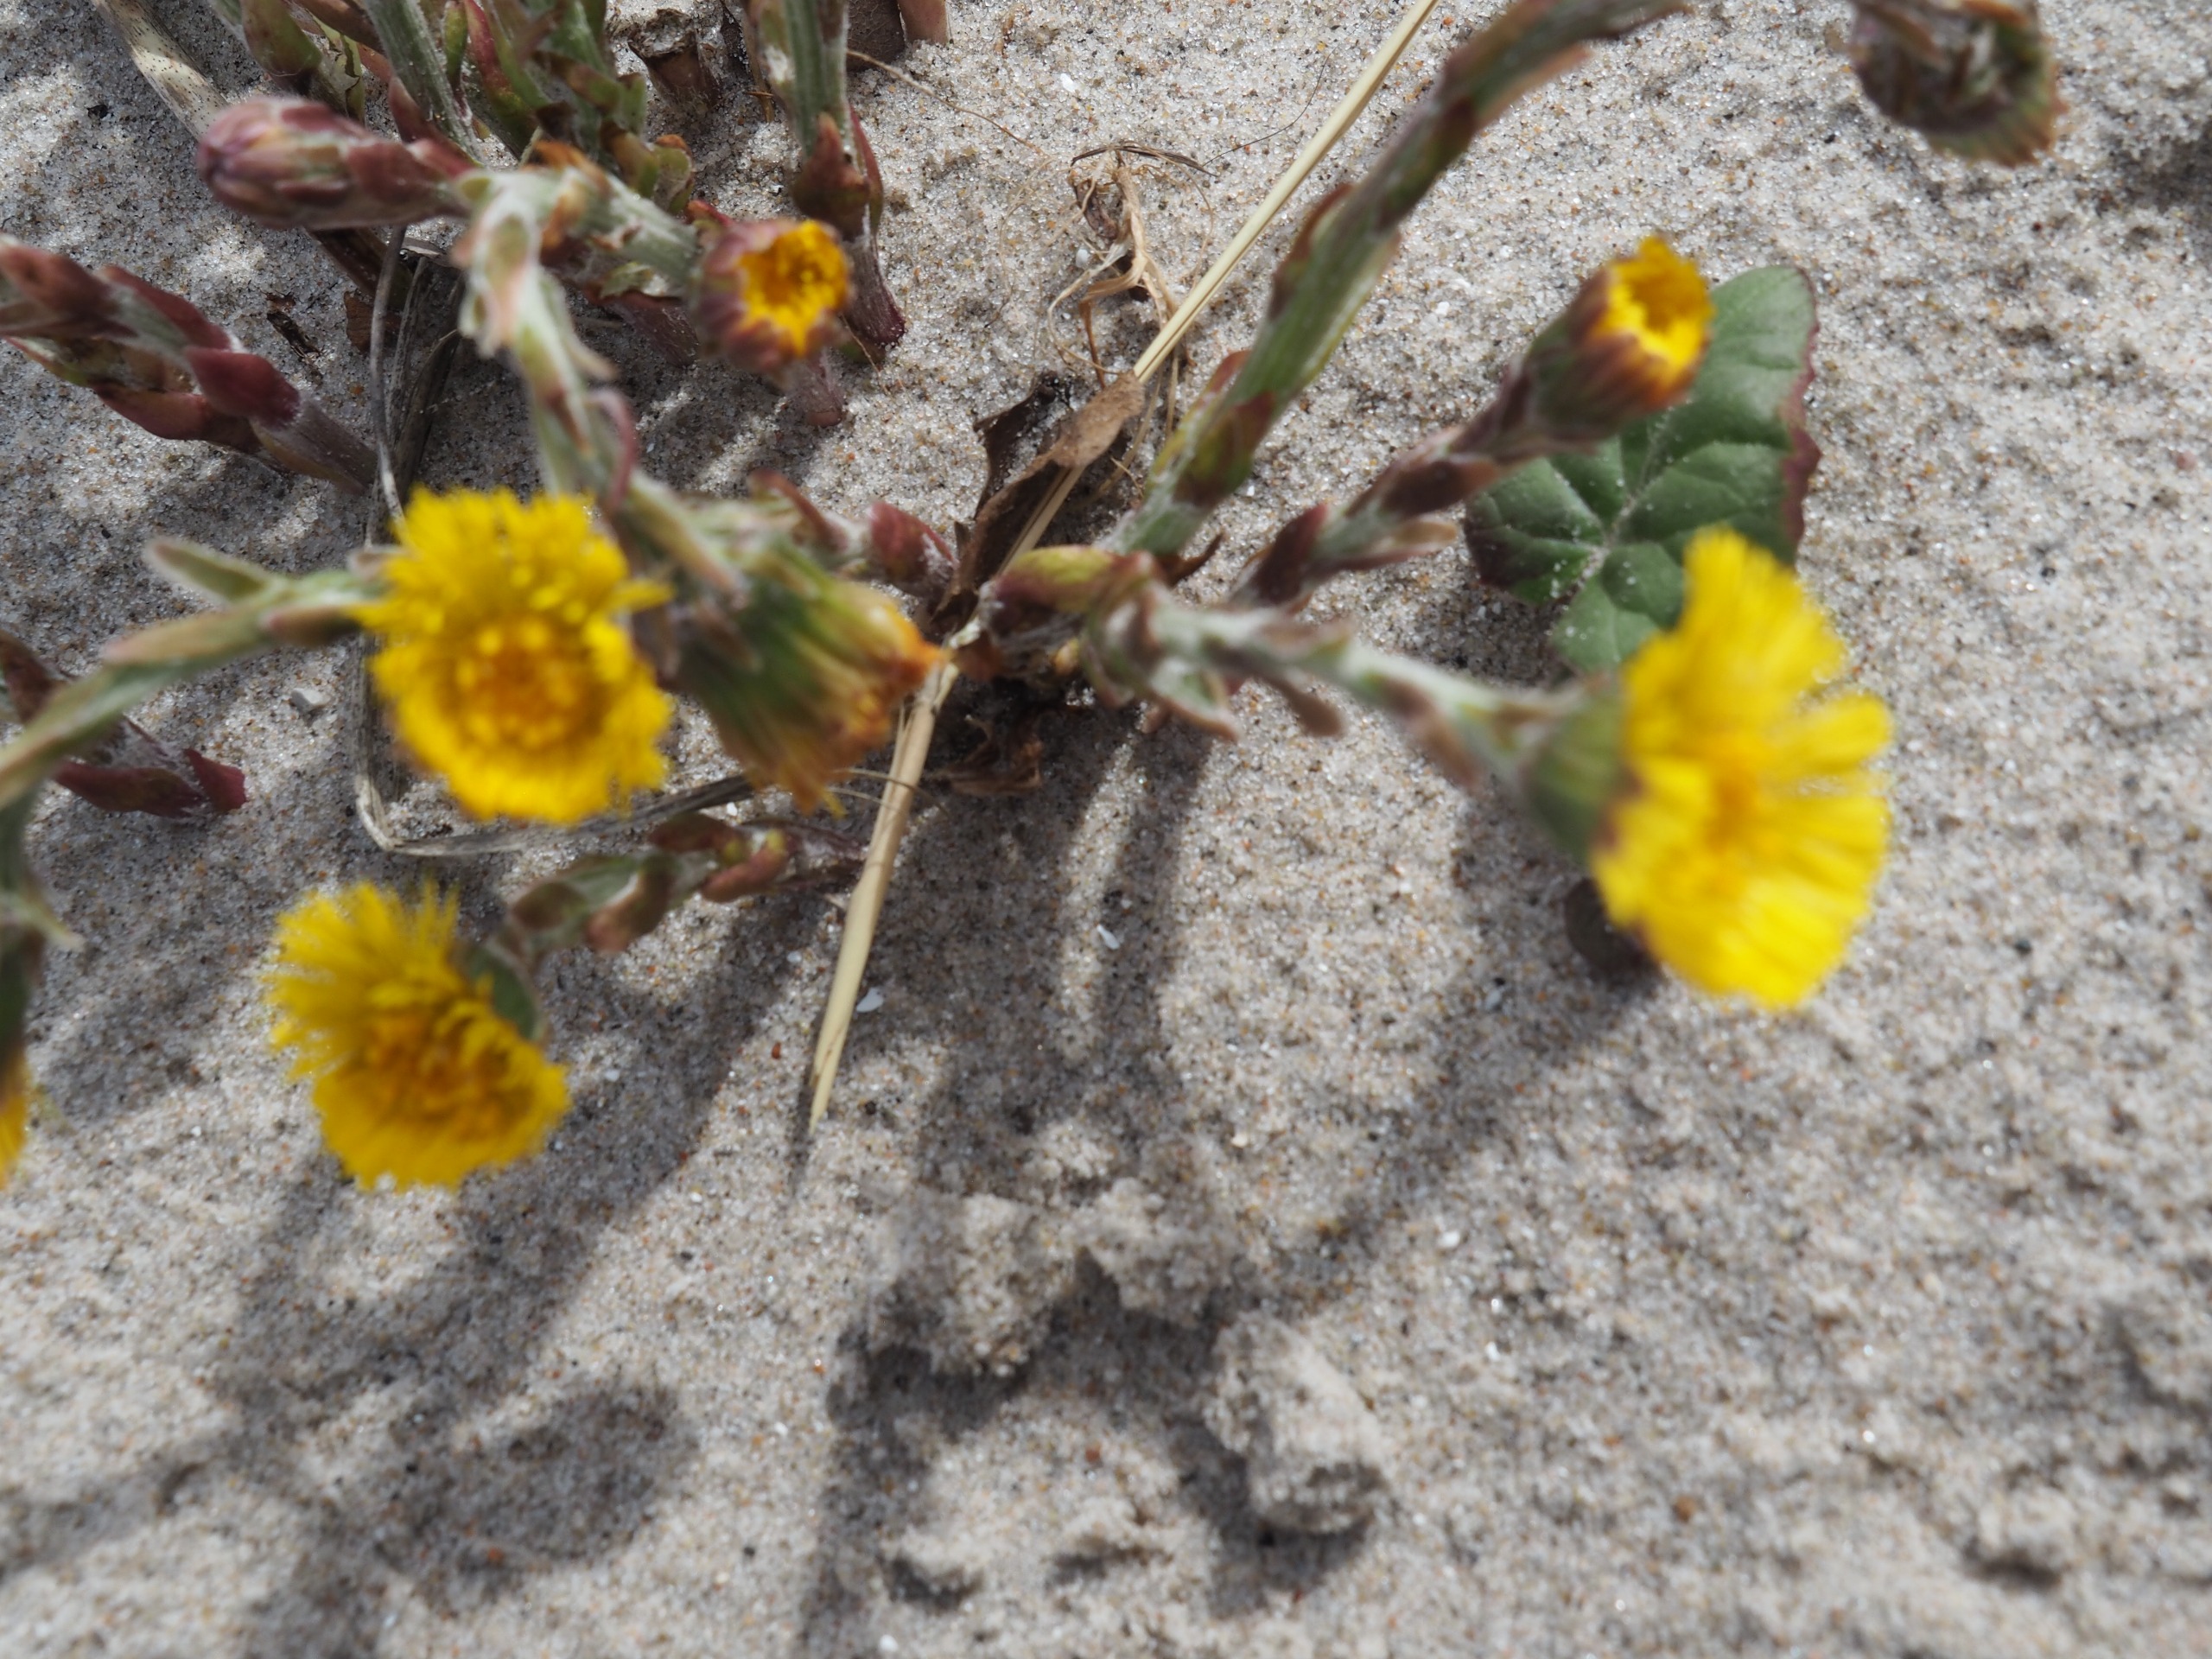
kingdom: Plantae
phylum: Tracheophyta
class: Magnoliopsida
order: Asterales
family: Asteraceae
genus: Tussilago
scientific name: Tussilago farfara
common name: Følfod
